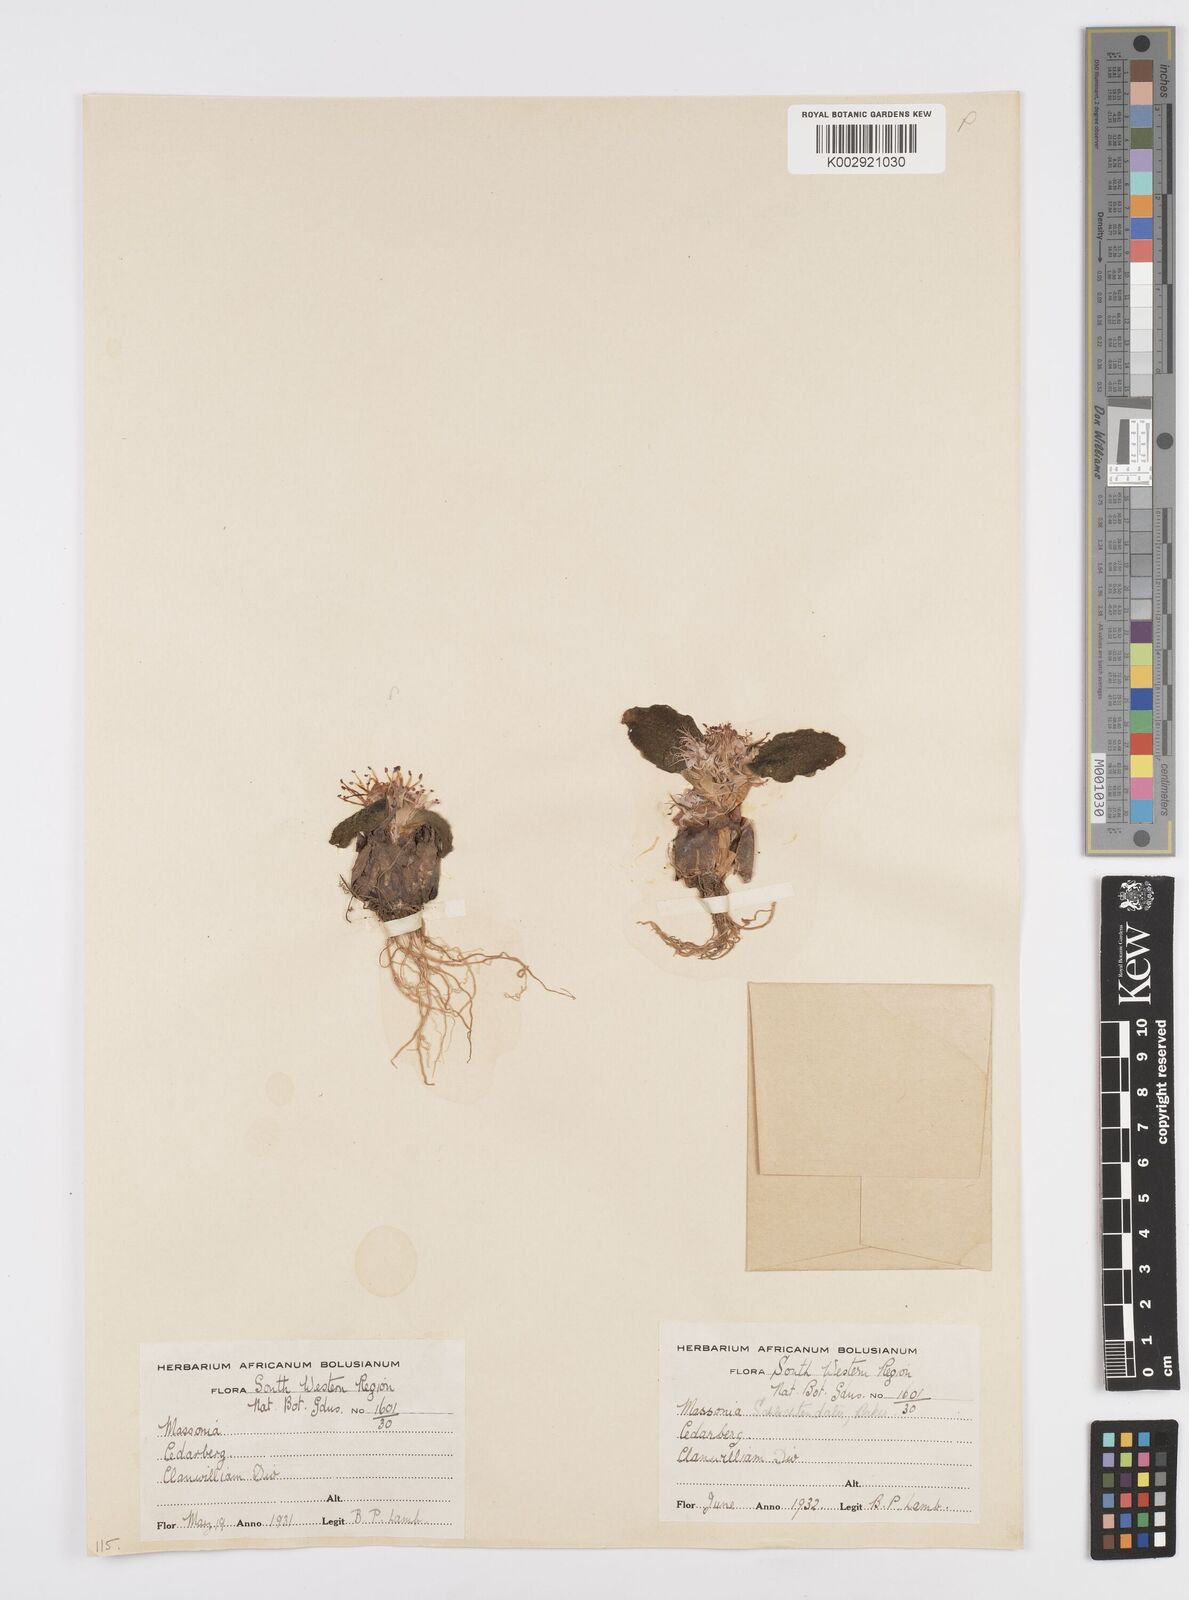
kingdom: Plantae
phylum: Tracheophyta
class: Liliopsida
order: Asparagales
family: Asparagaceae
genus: Massonia
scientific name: Massonia
